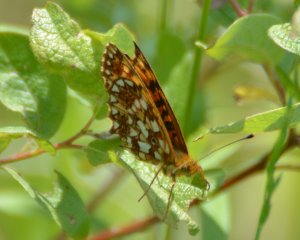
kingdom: Animalia
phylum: Arthropoda
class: Insecta
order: Lepidoptera
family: Nymphalidae
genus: Boloria
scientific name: Boloria selene
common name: Silver-bordered Fritillary
